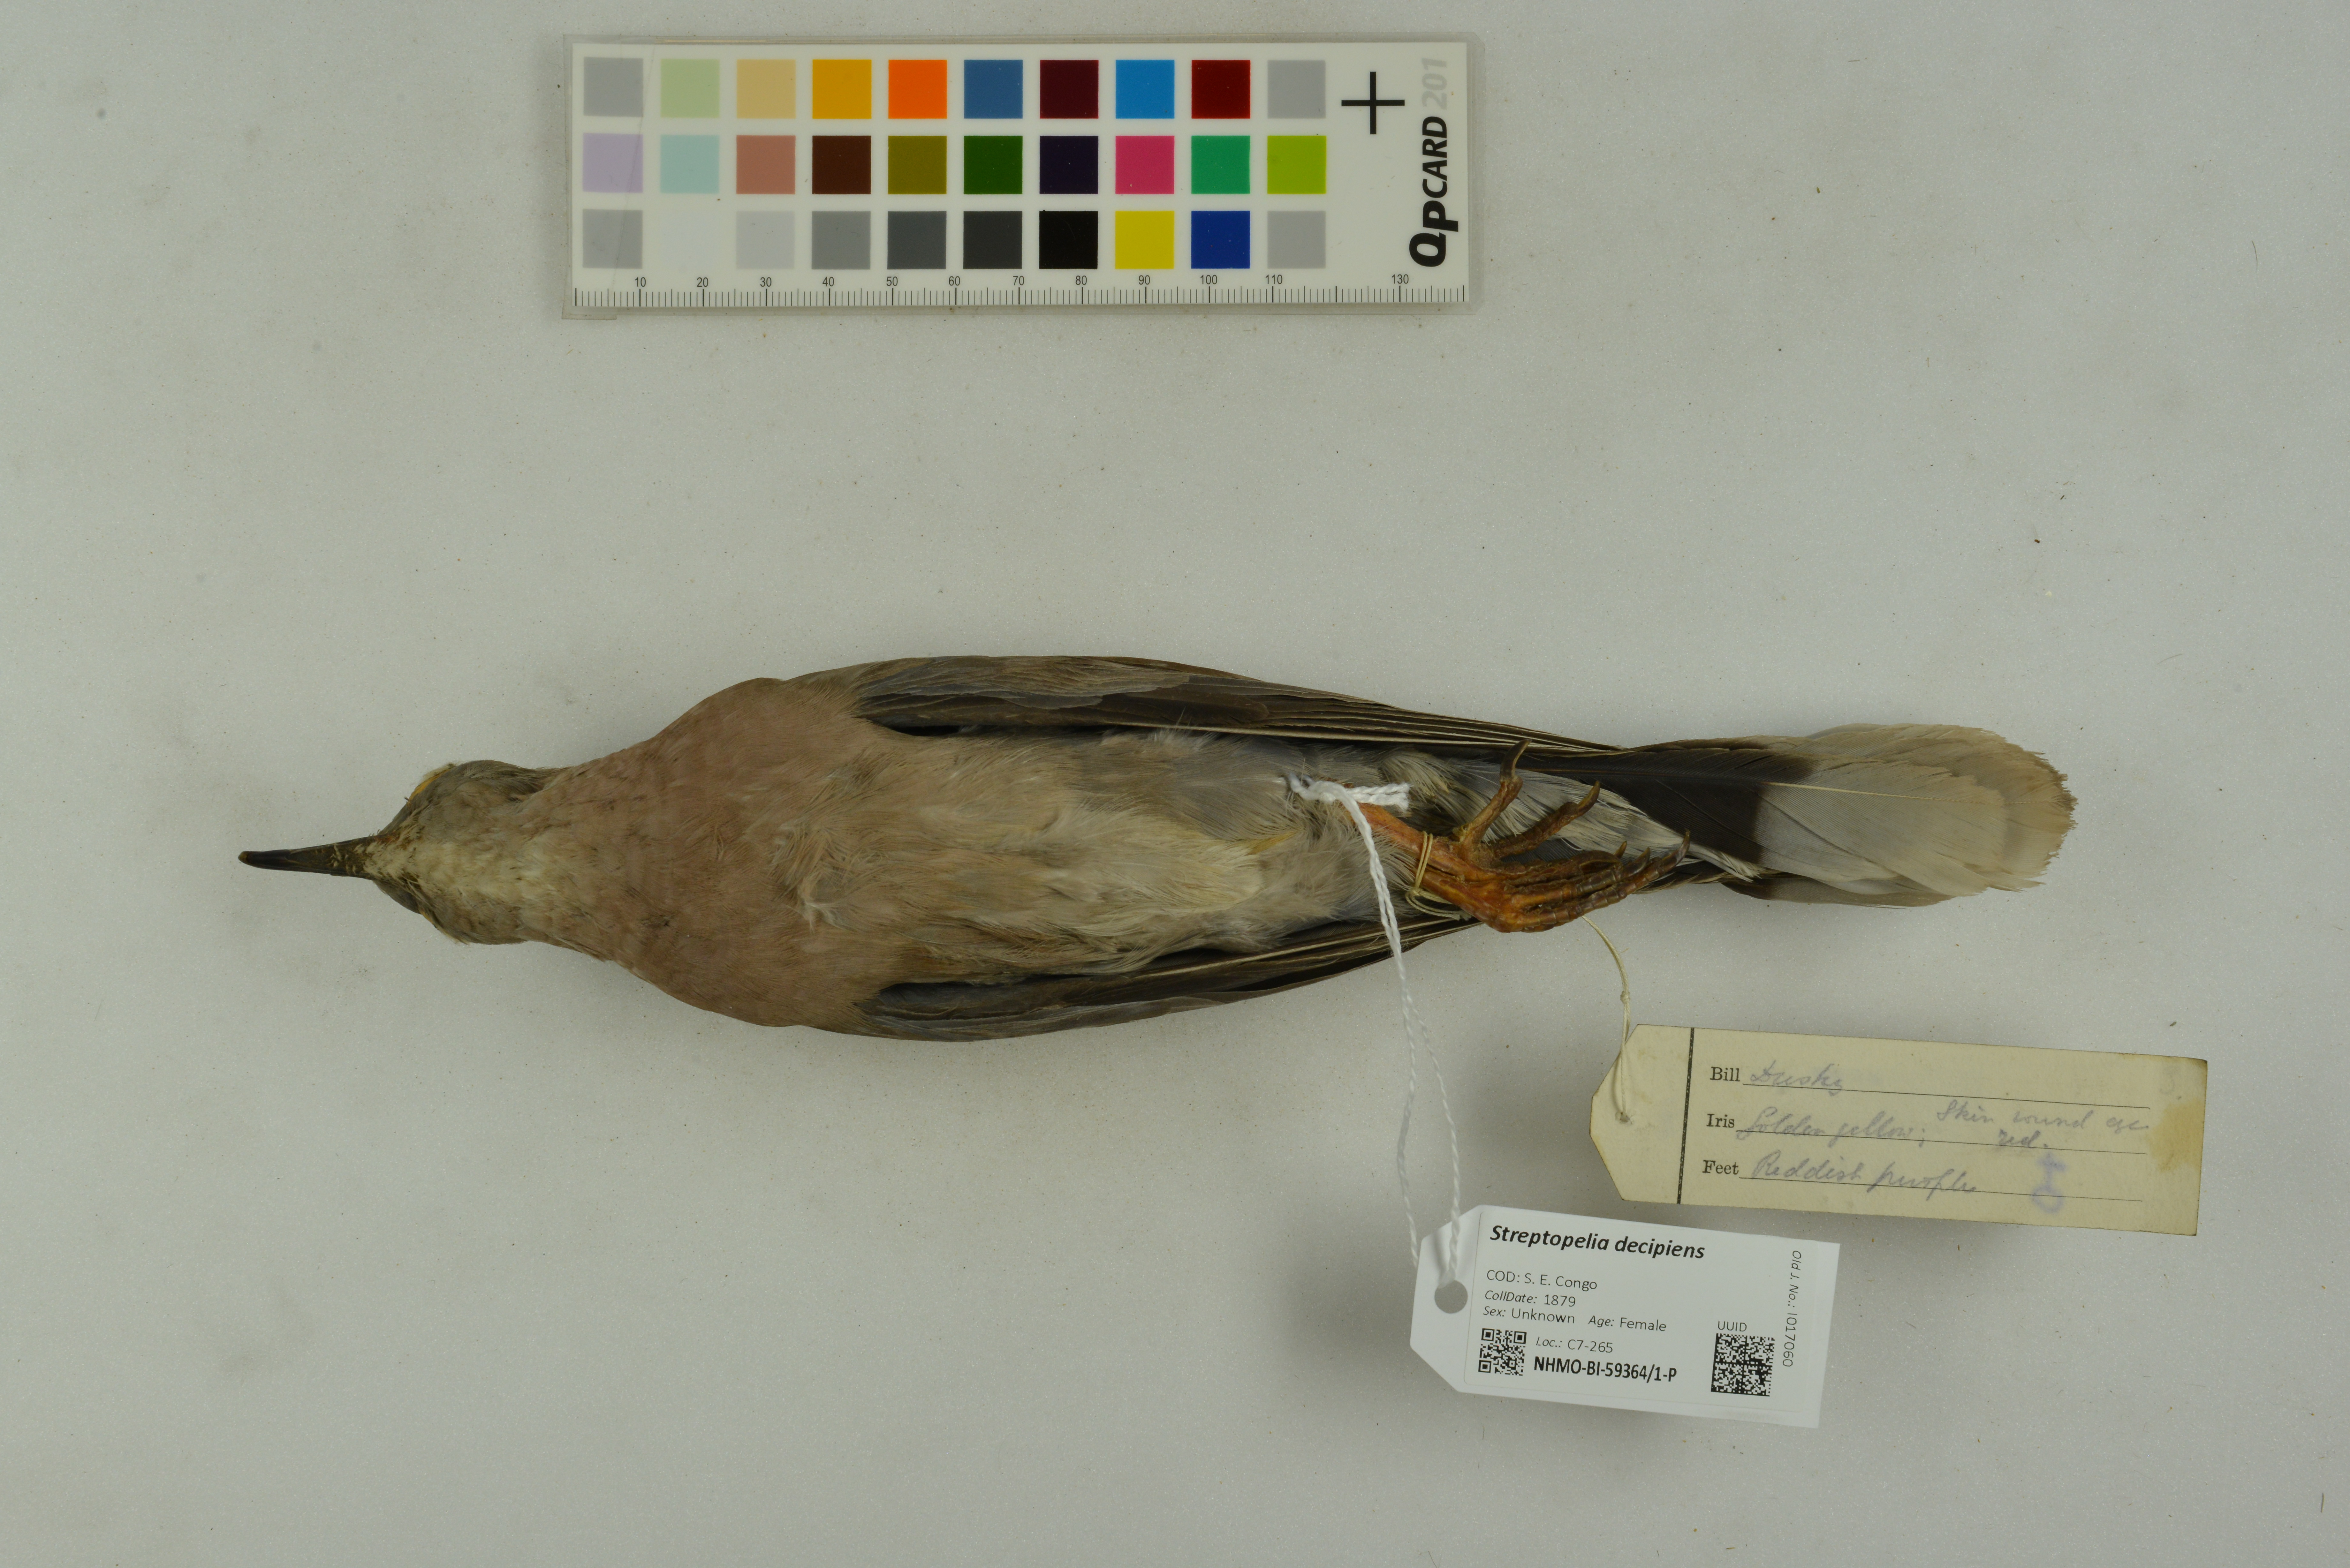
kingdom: Animalia
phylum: Chordata
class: Aves
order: Columbiformes
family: Columbidae
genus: Streptopelia
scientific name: Streptopelia decipiens
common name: Mourning collared dove
